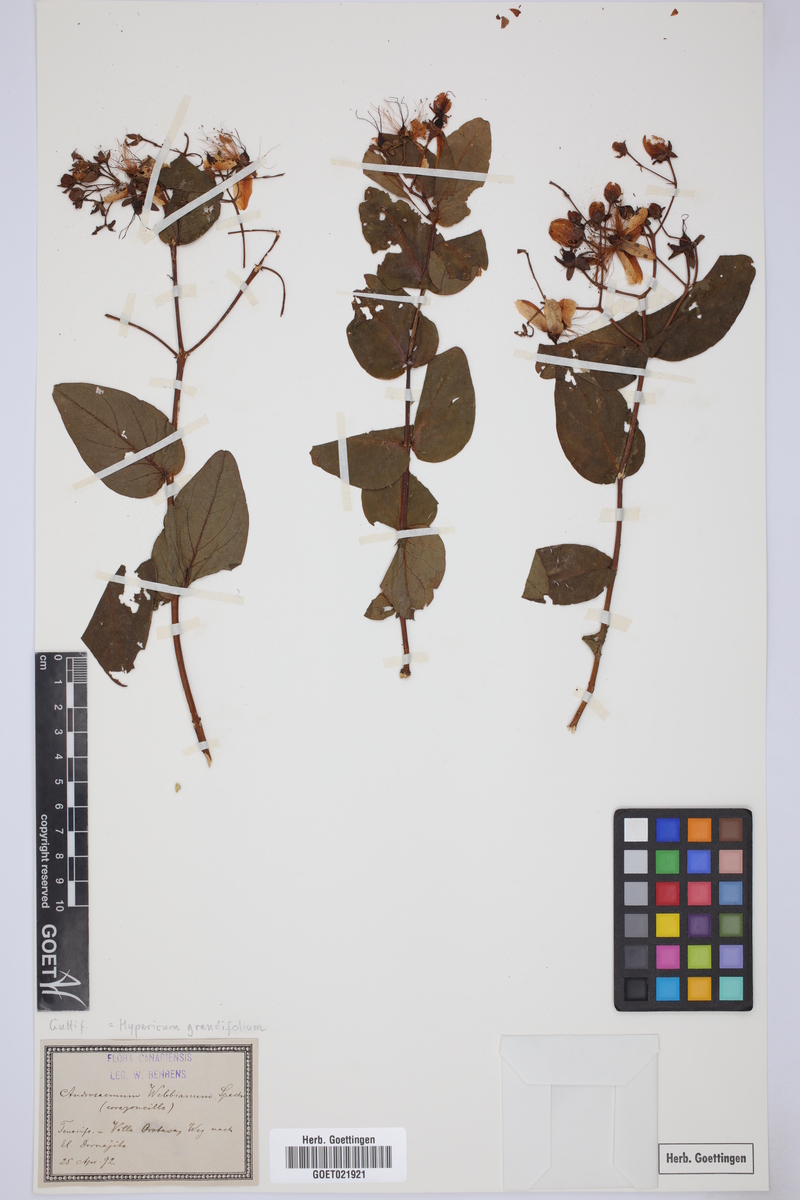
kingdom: Plantae
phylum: Tracheophyta
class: Magnoliopsida
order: Malpighiales
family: Hypericaceae
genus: Hypericum
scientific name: Hypericum glandulosum
